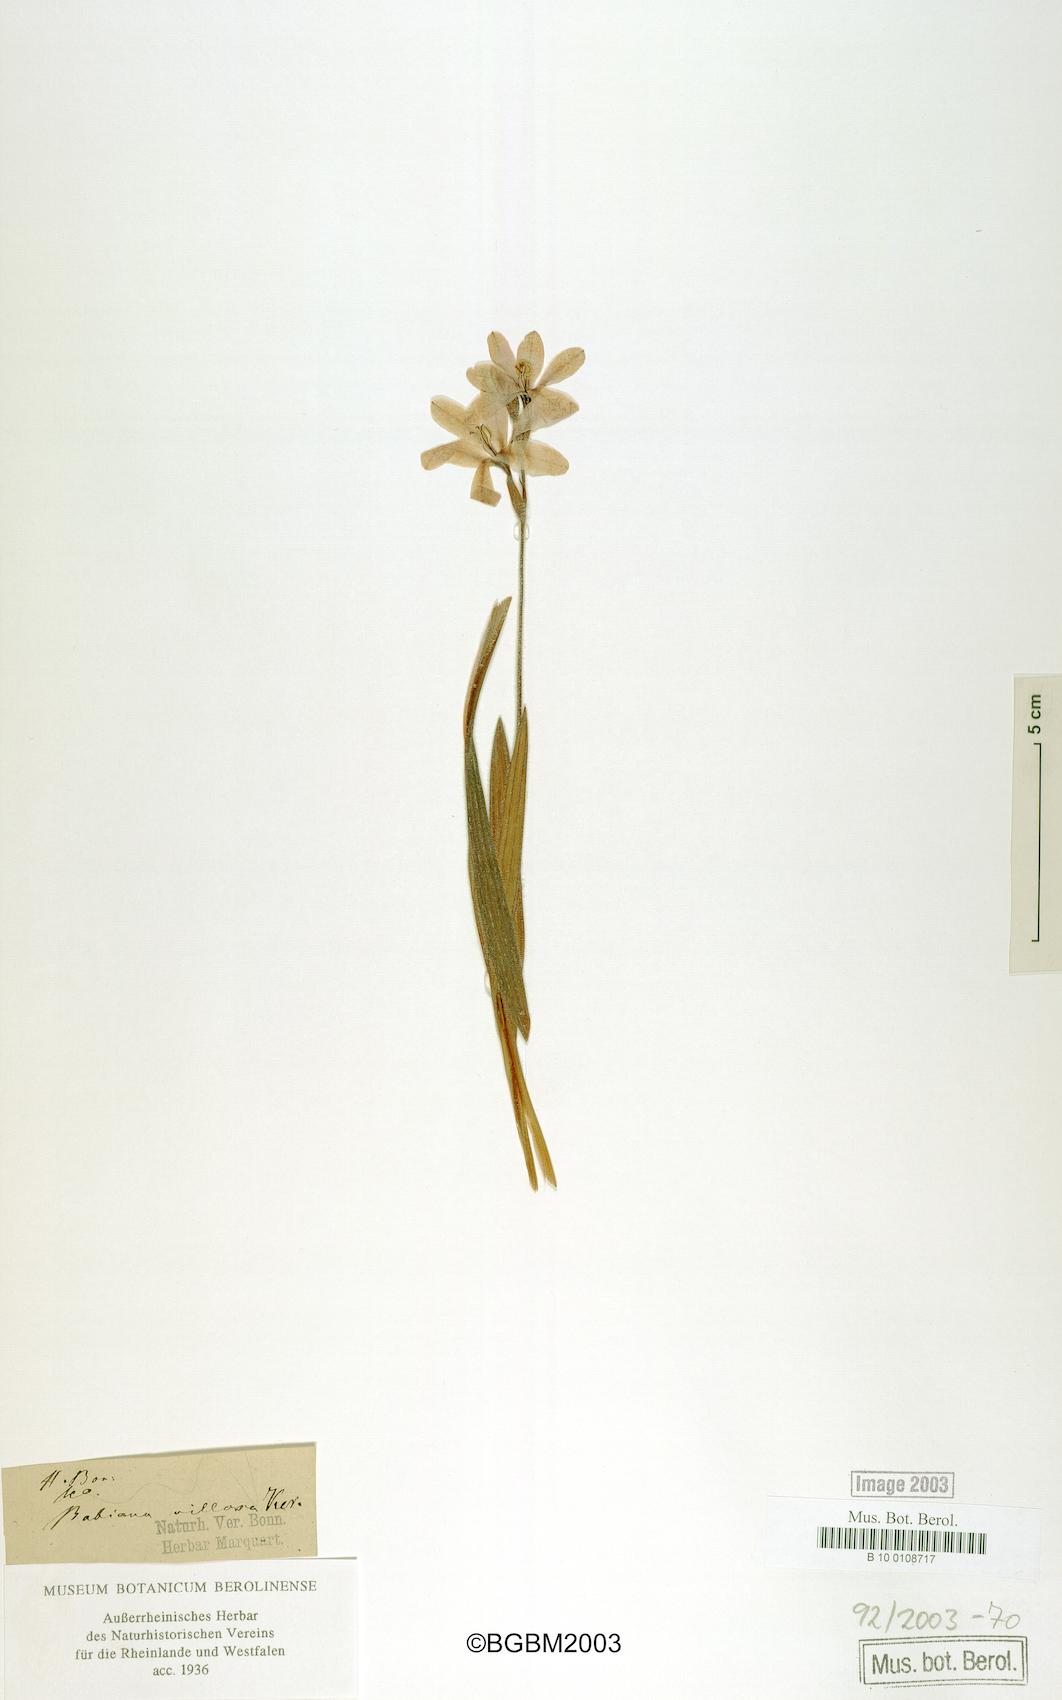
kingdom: Plantae
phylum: Tracheophyta
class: Liliopsida
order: Asparagales
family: Iridaceae
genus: Babiana
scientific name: Babiana villosa
